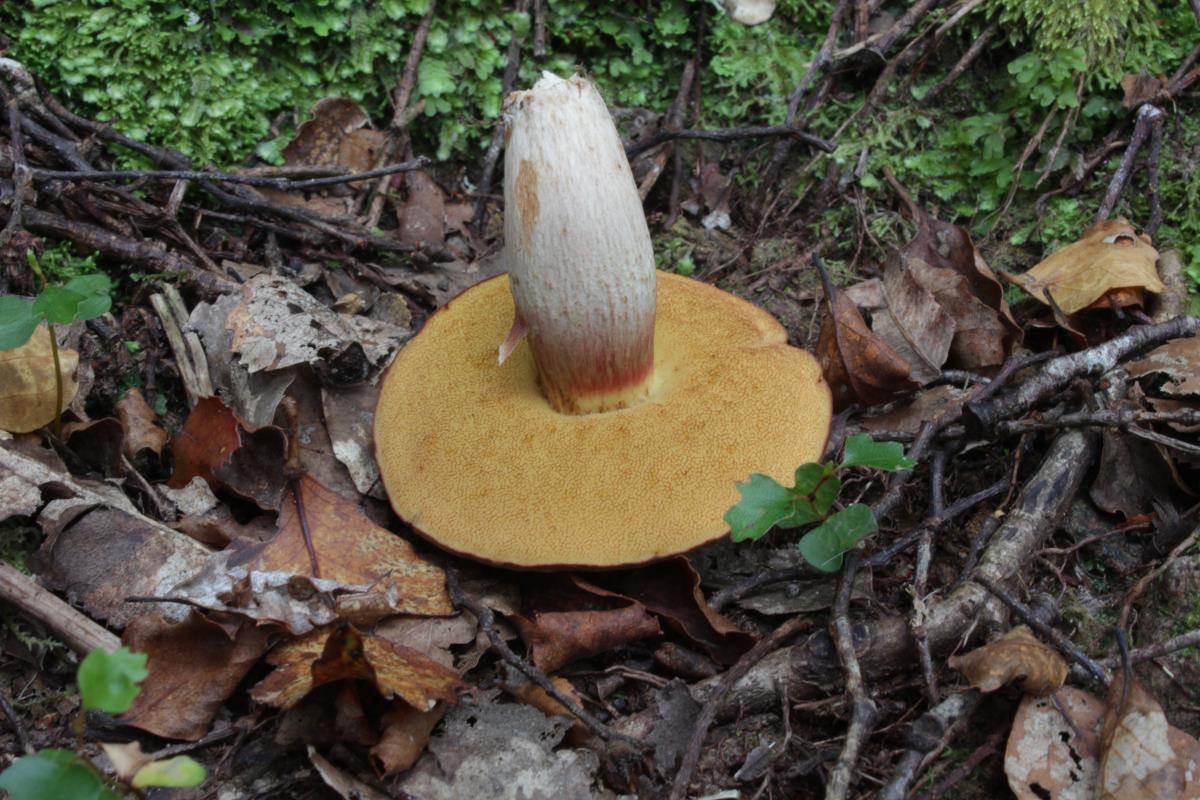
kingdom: Fungi
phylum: Basidiomycota
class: Agaricomycetes
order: Boletales
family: Boletaceae
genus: Xerocomus
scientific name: Xerocomus nothofagi
